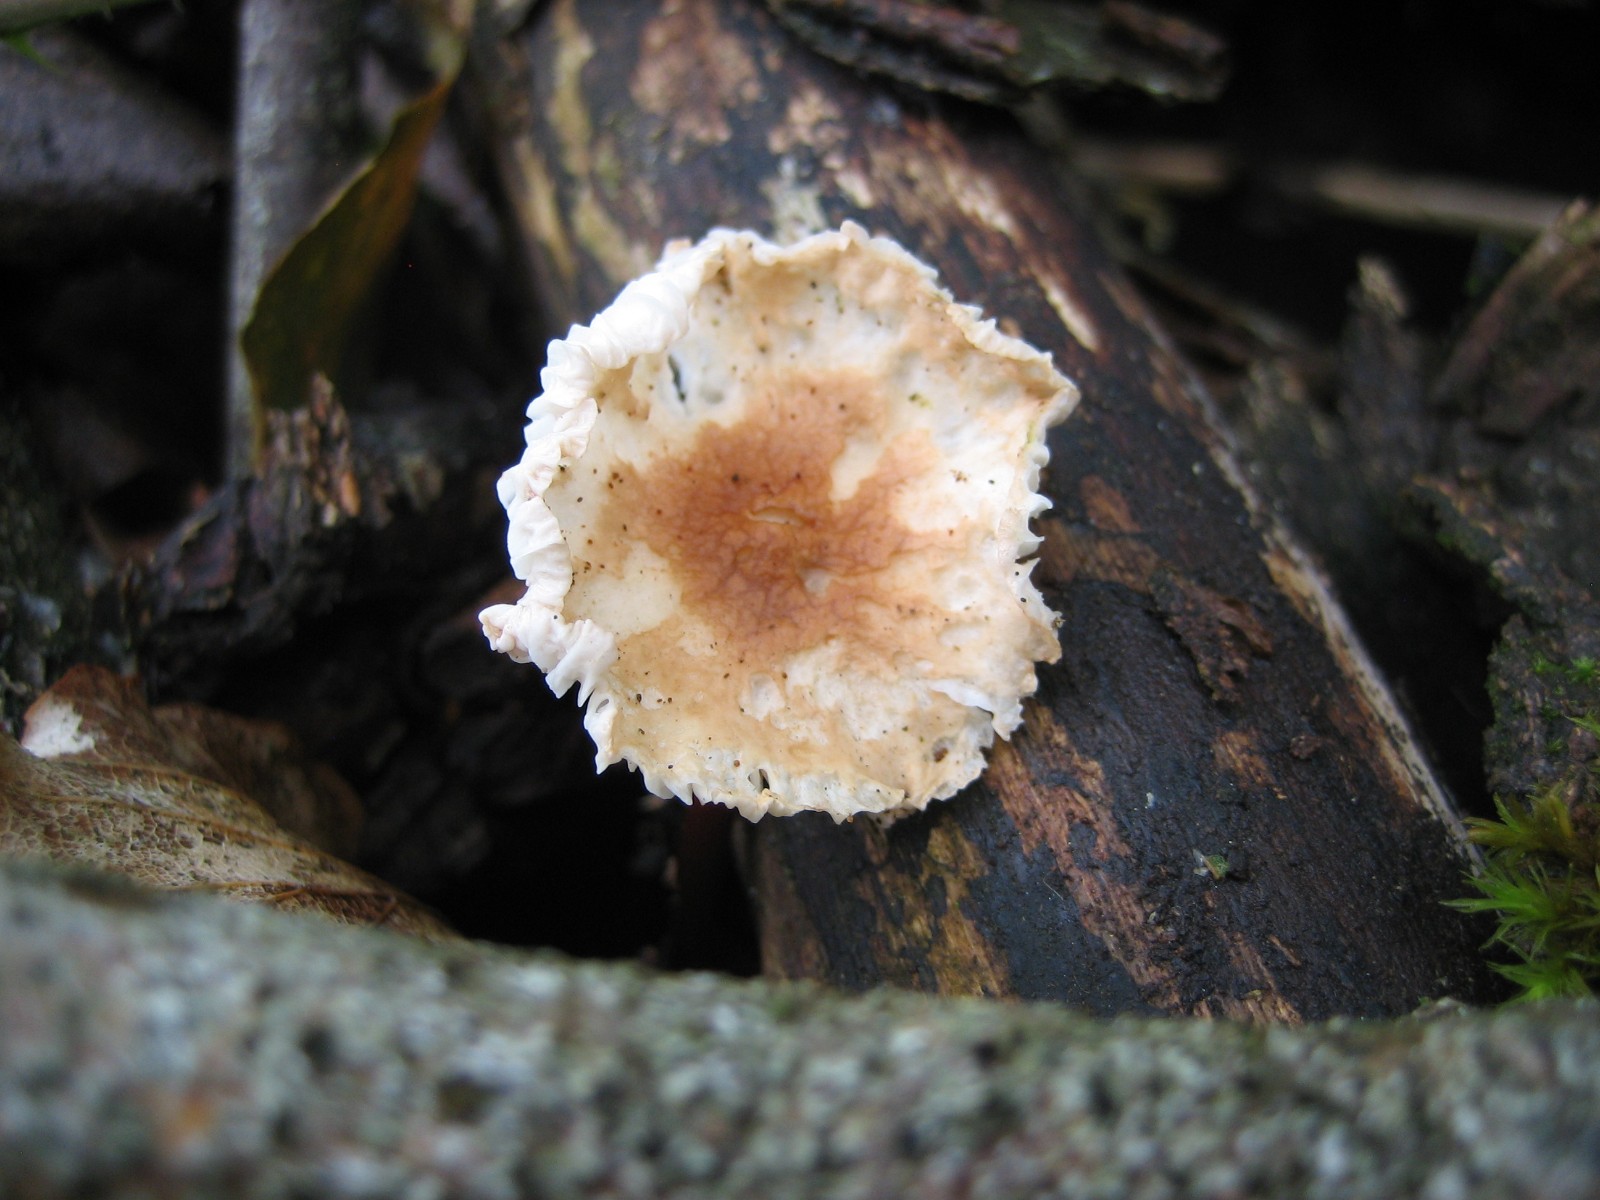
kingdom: Fungi
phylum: Basidiomycota
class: Agaricomycetes
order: Agaricales
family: Omphalotaceae
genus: Mycetinis
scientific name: Mycetinis scorodonius
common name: lille løghat
